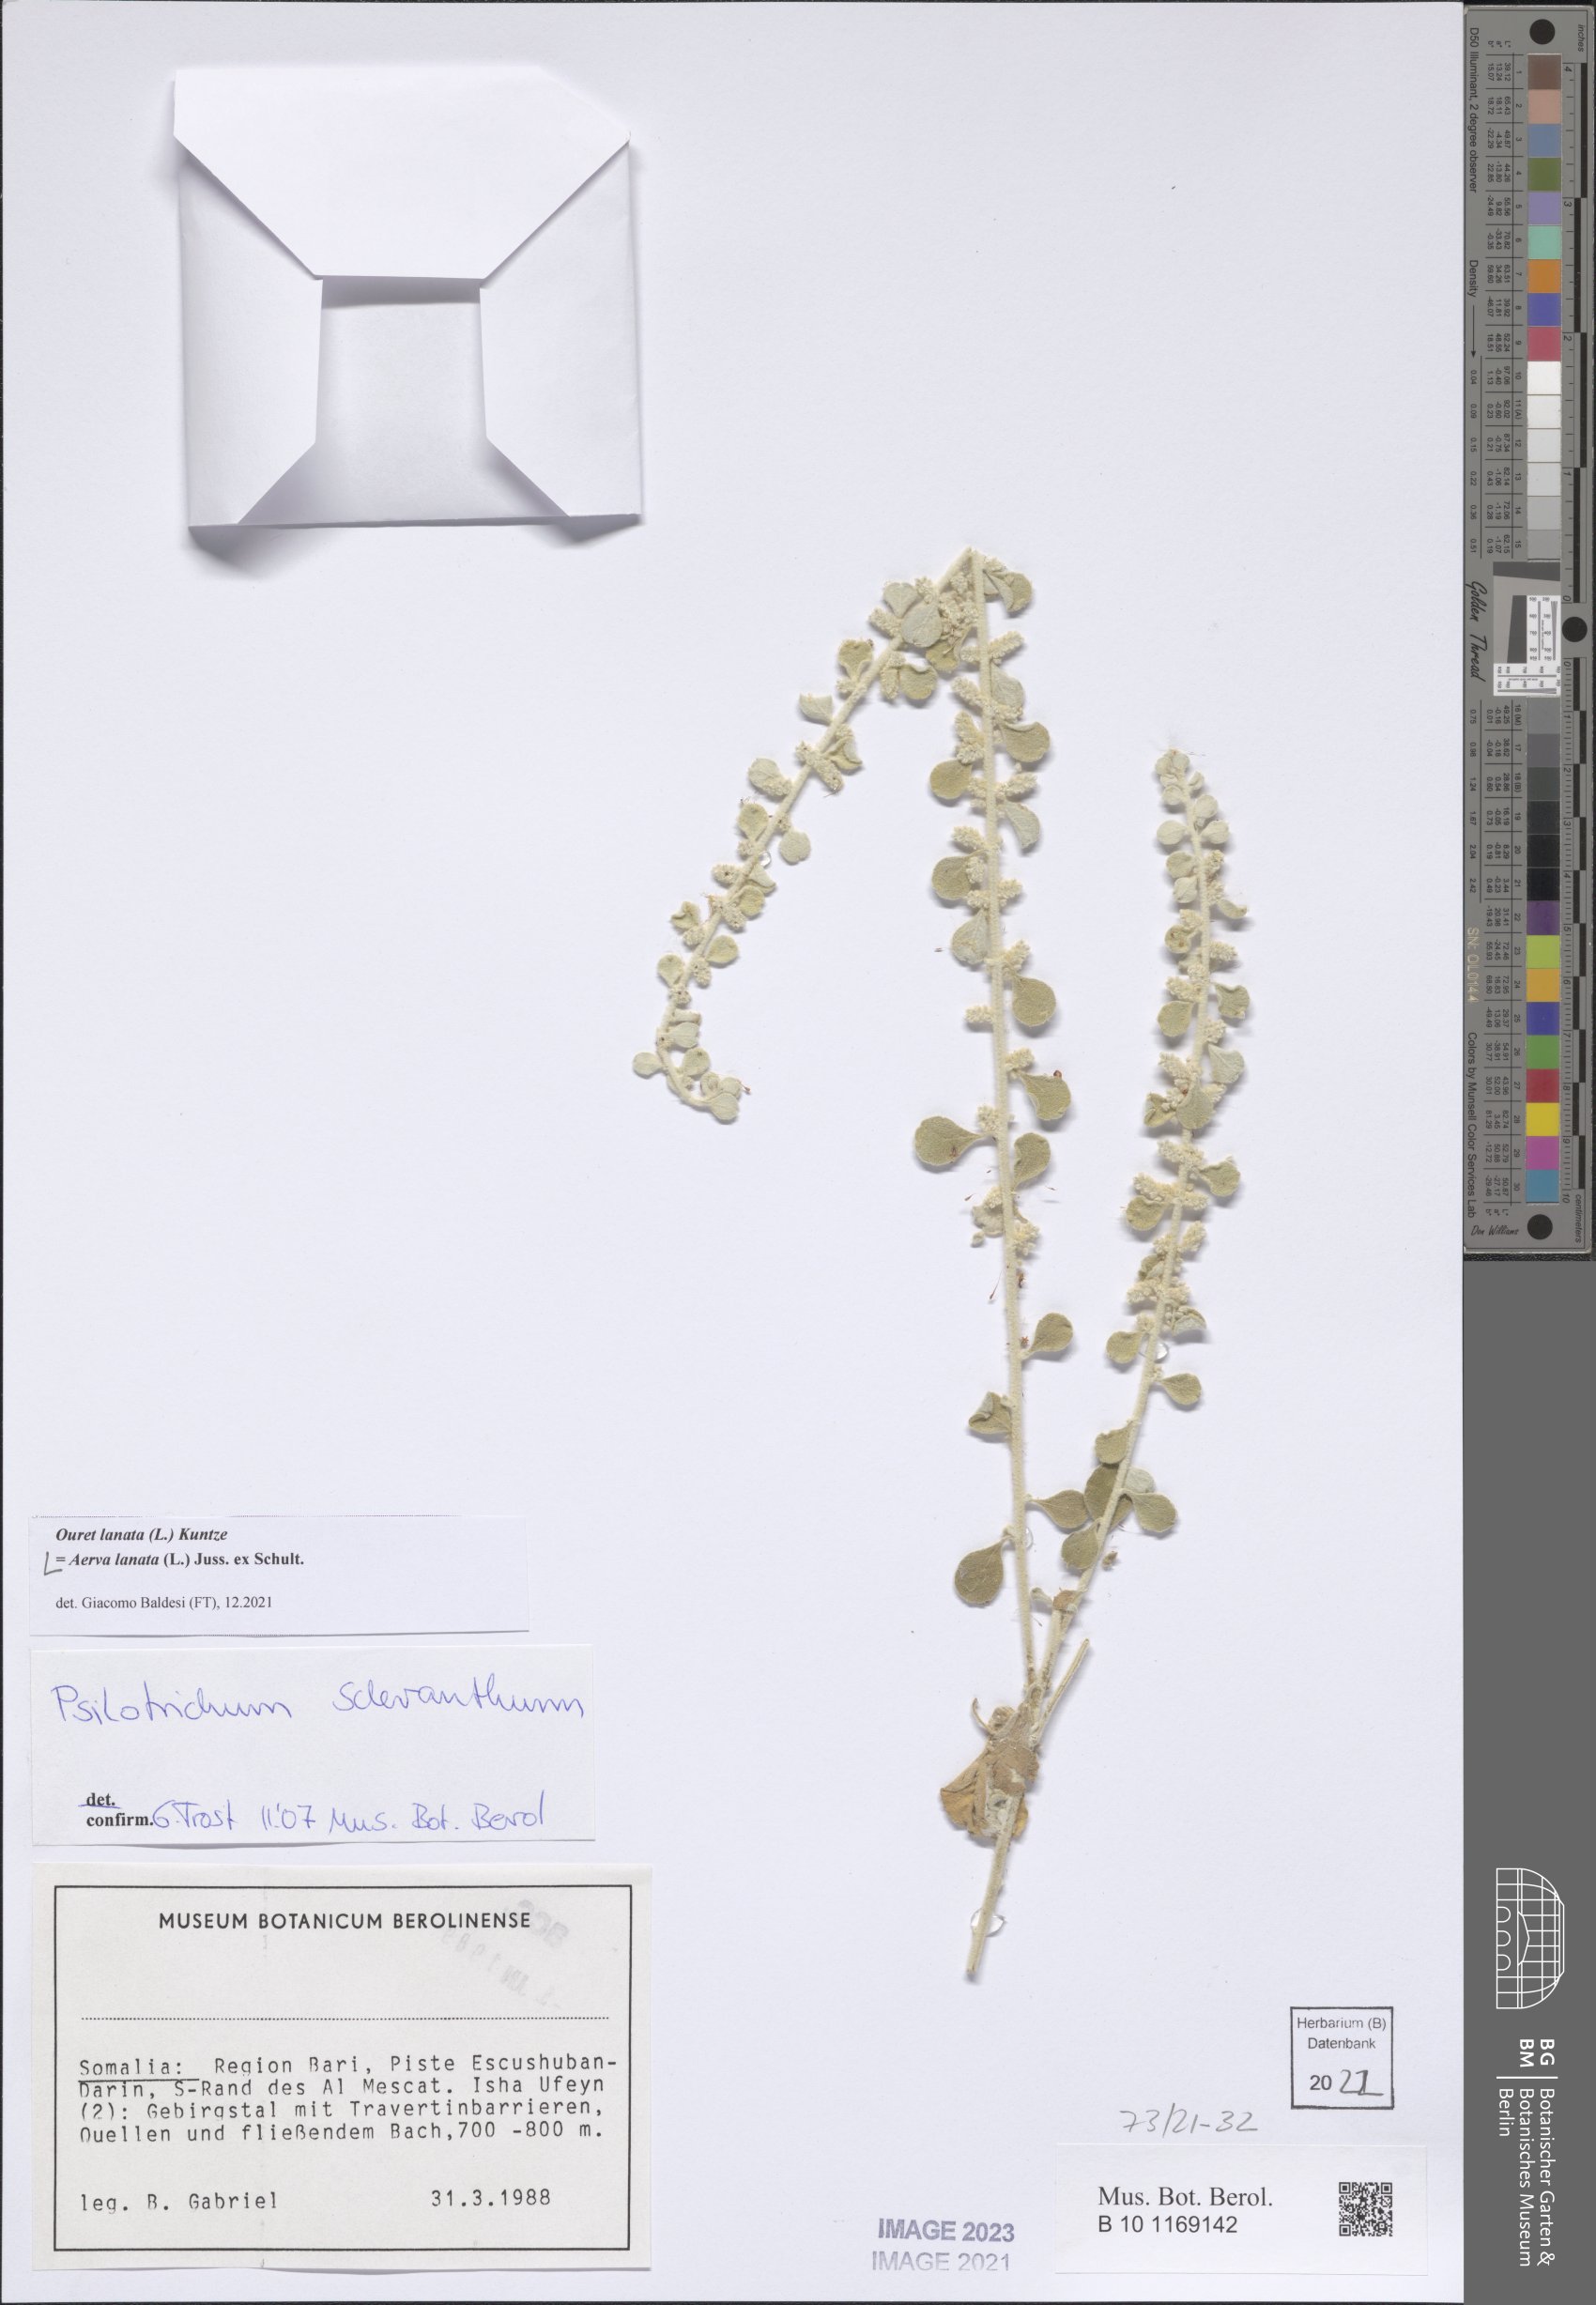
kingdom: Plantae
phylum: Tracheophyta
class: Magnoliopsida
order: Caryophyllales
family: Amaranthaceae
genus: Ouret
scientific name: Ouret lanata
